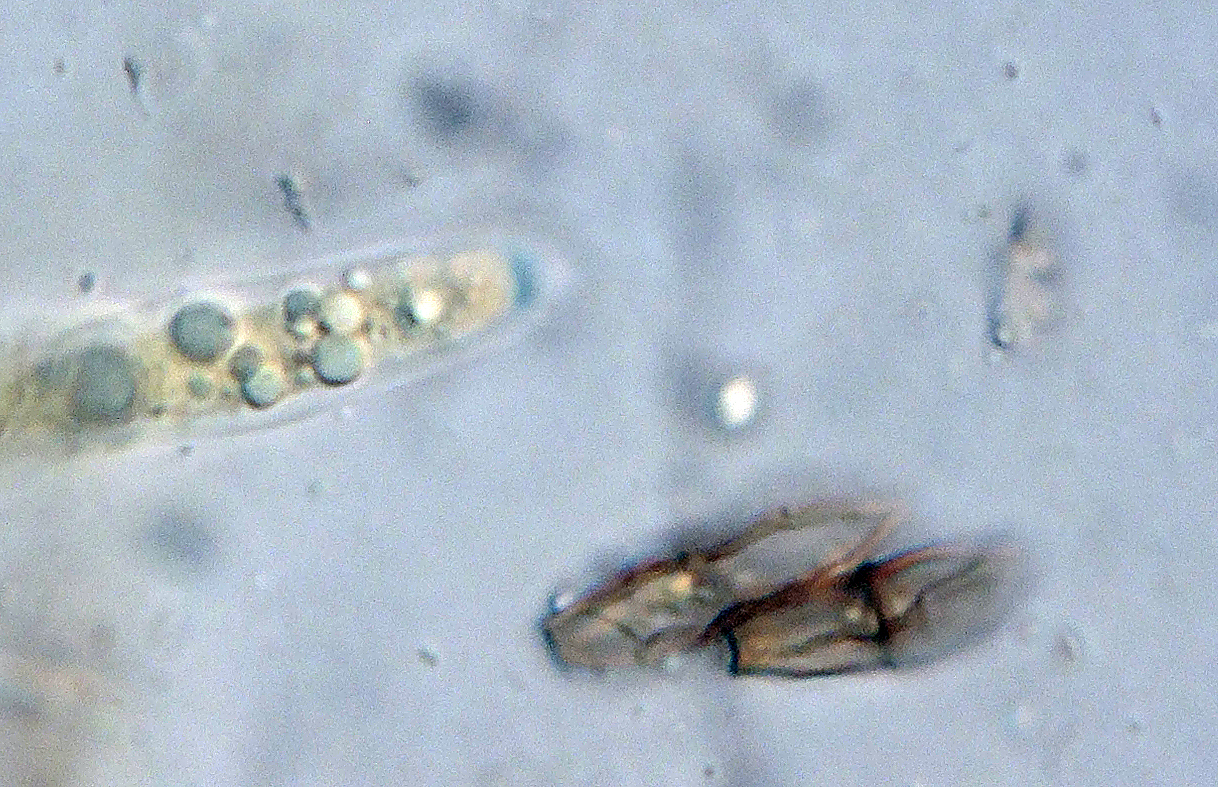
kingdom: Fungi
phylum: Ascomycota
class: Sordariomycetes
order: Amphisphaeriales
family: Amphisphaeriaceae
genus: Amphisphaeria
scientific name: Amphisphaeria
